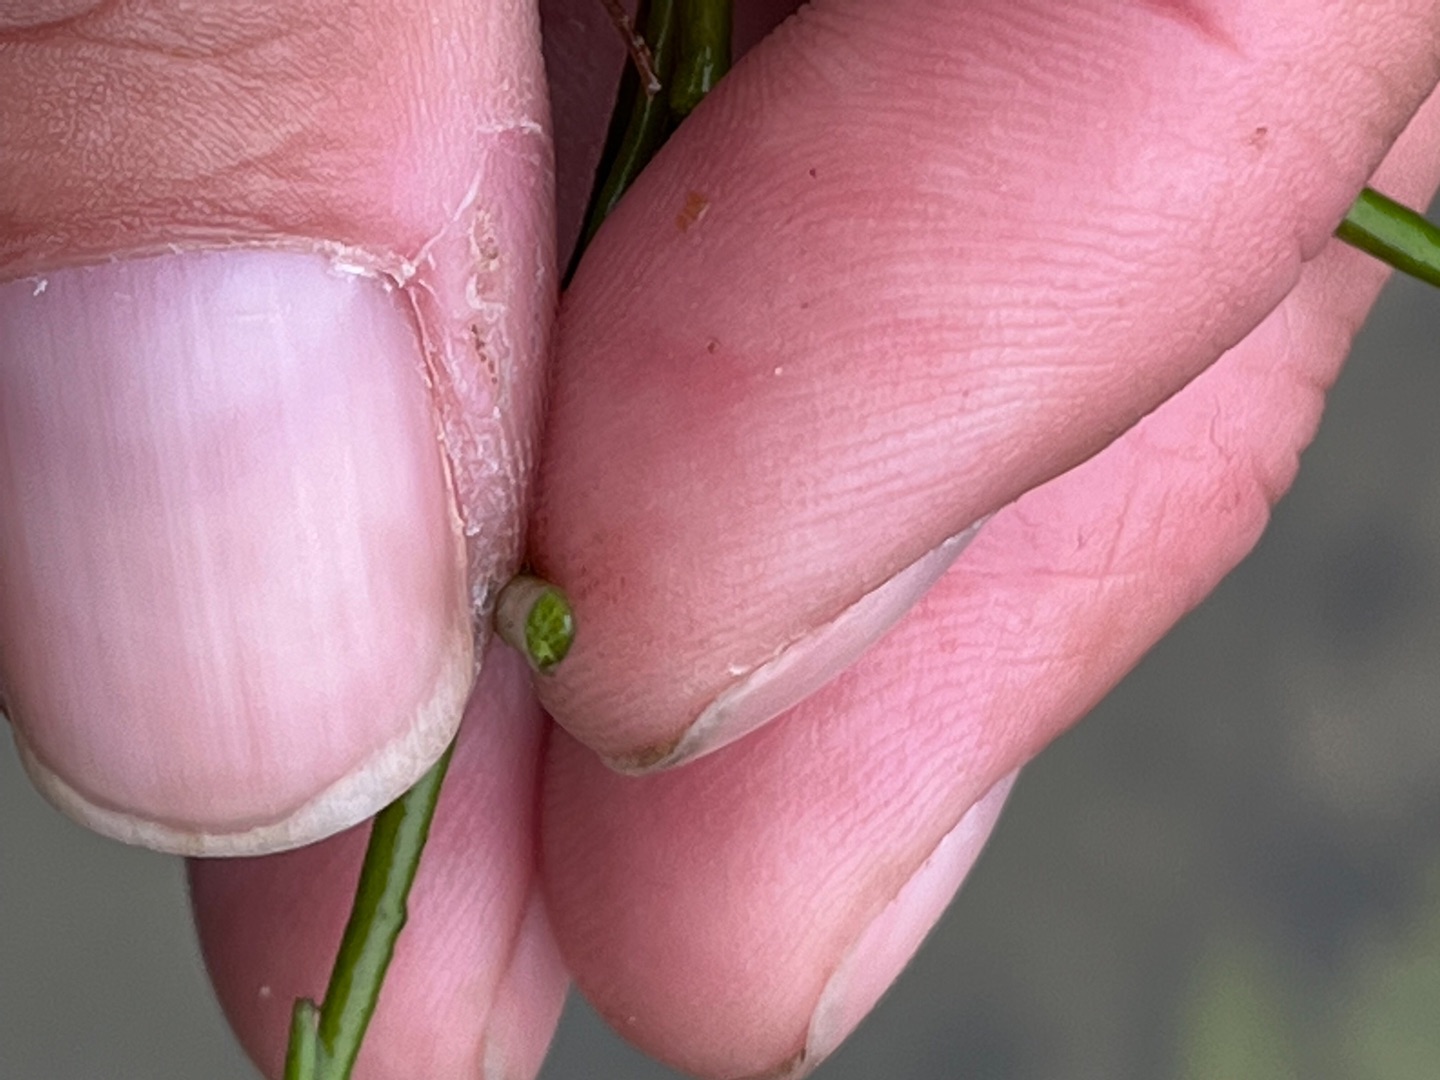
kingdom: Plantae
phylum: Tracheophyta
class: Magnoliopsida
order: Lamiales
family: Plantaginaceae
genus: Littorella
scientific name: Littorella uniflora
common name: Strandbo
